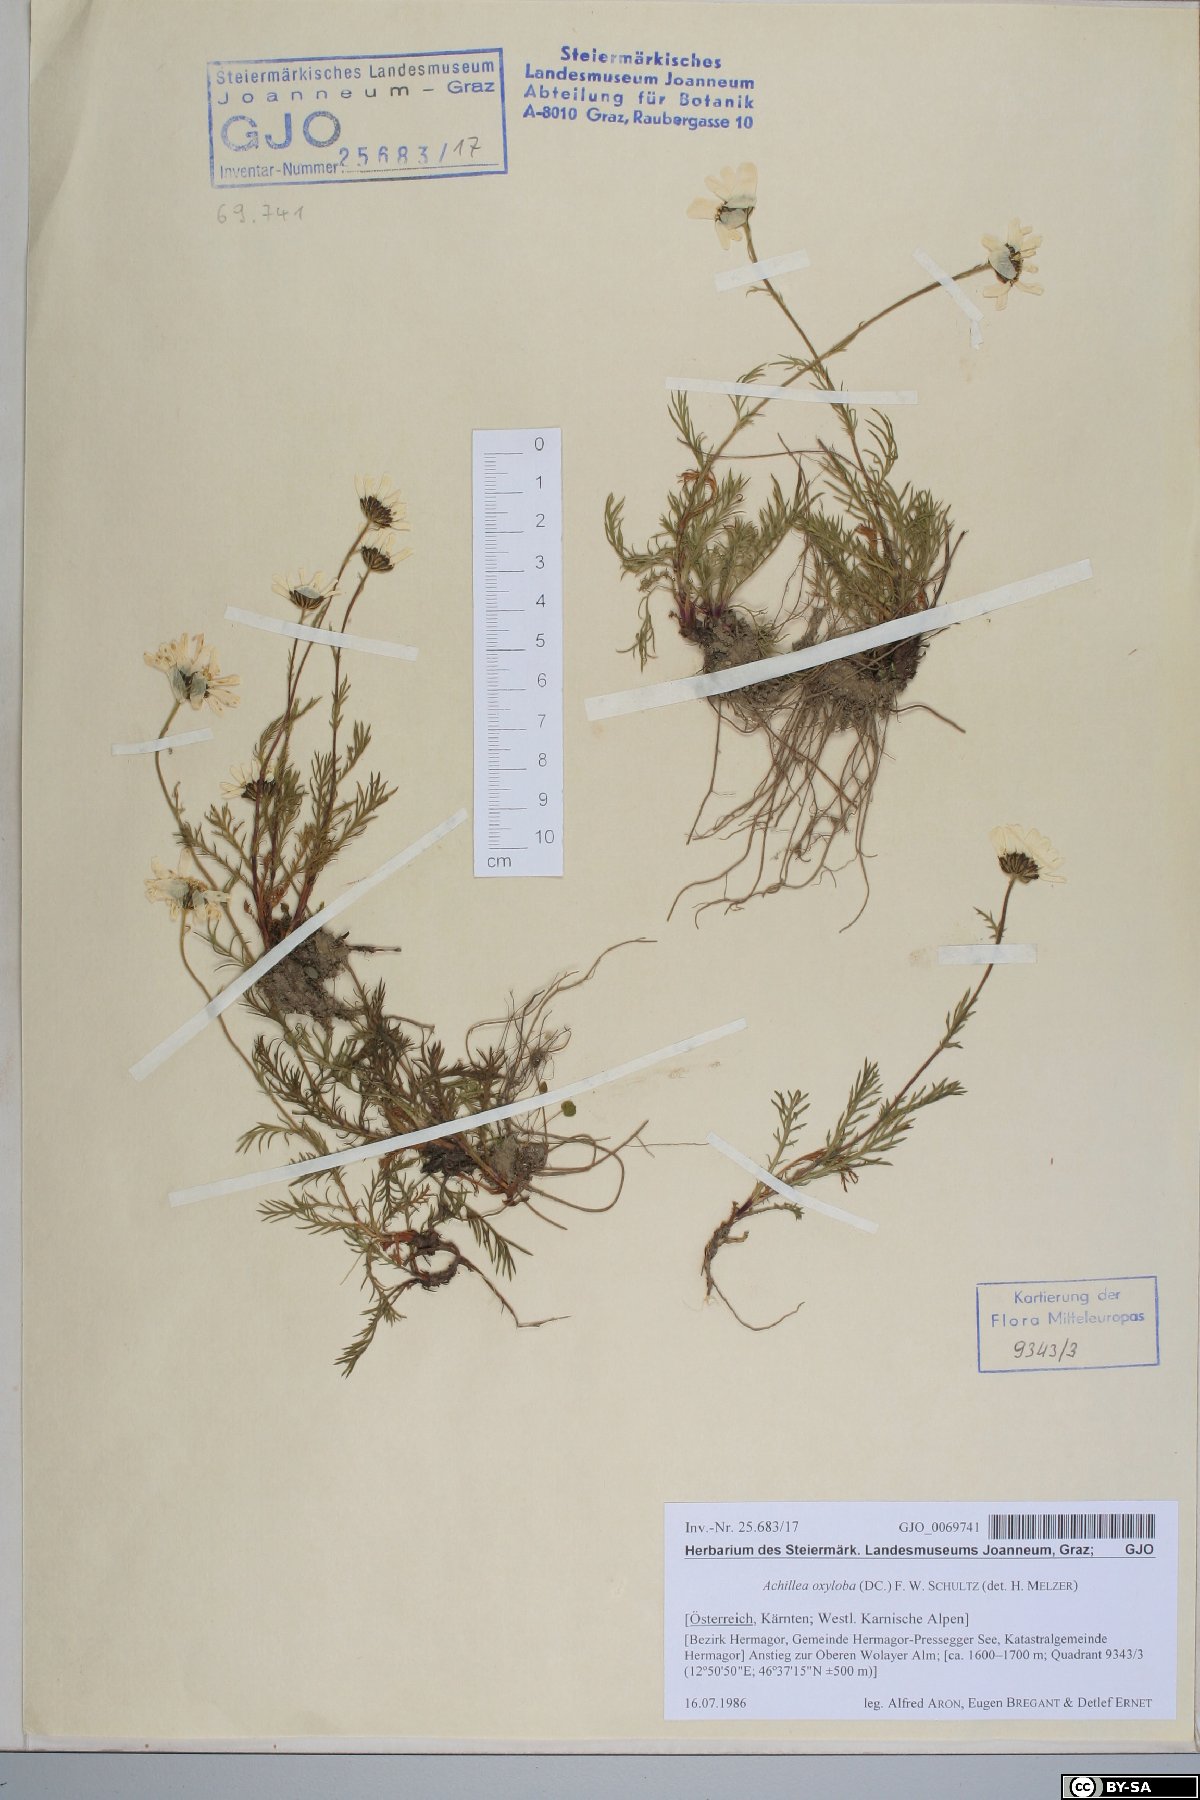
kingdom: Plantae
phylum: Tracheophyta
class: Magnoliopsida
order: Asterales
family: Asteraceae
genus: Achillea
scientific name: Achillea oxyloba
